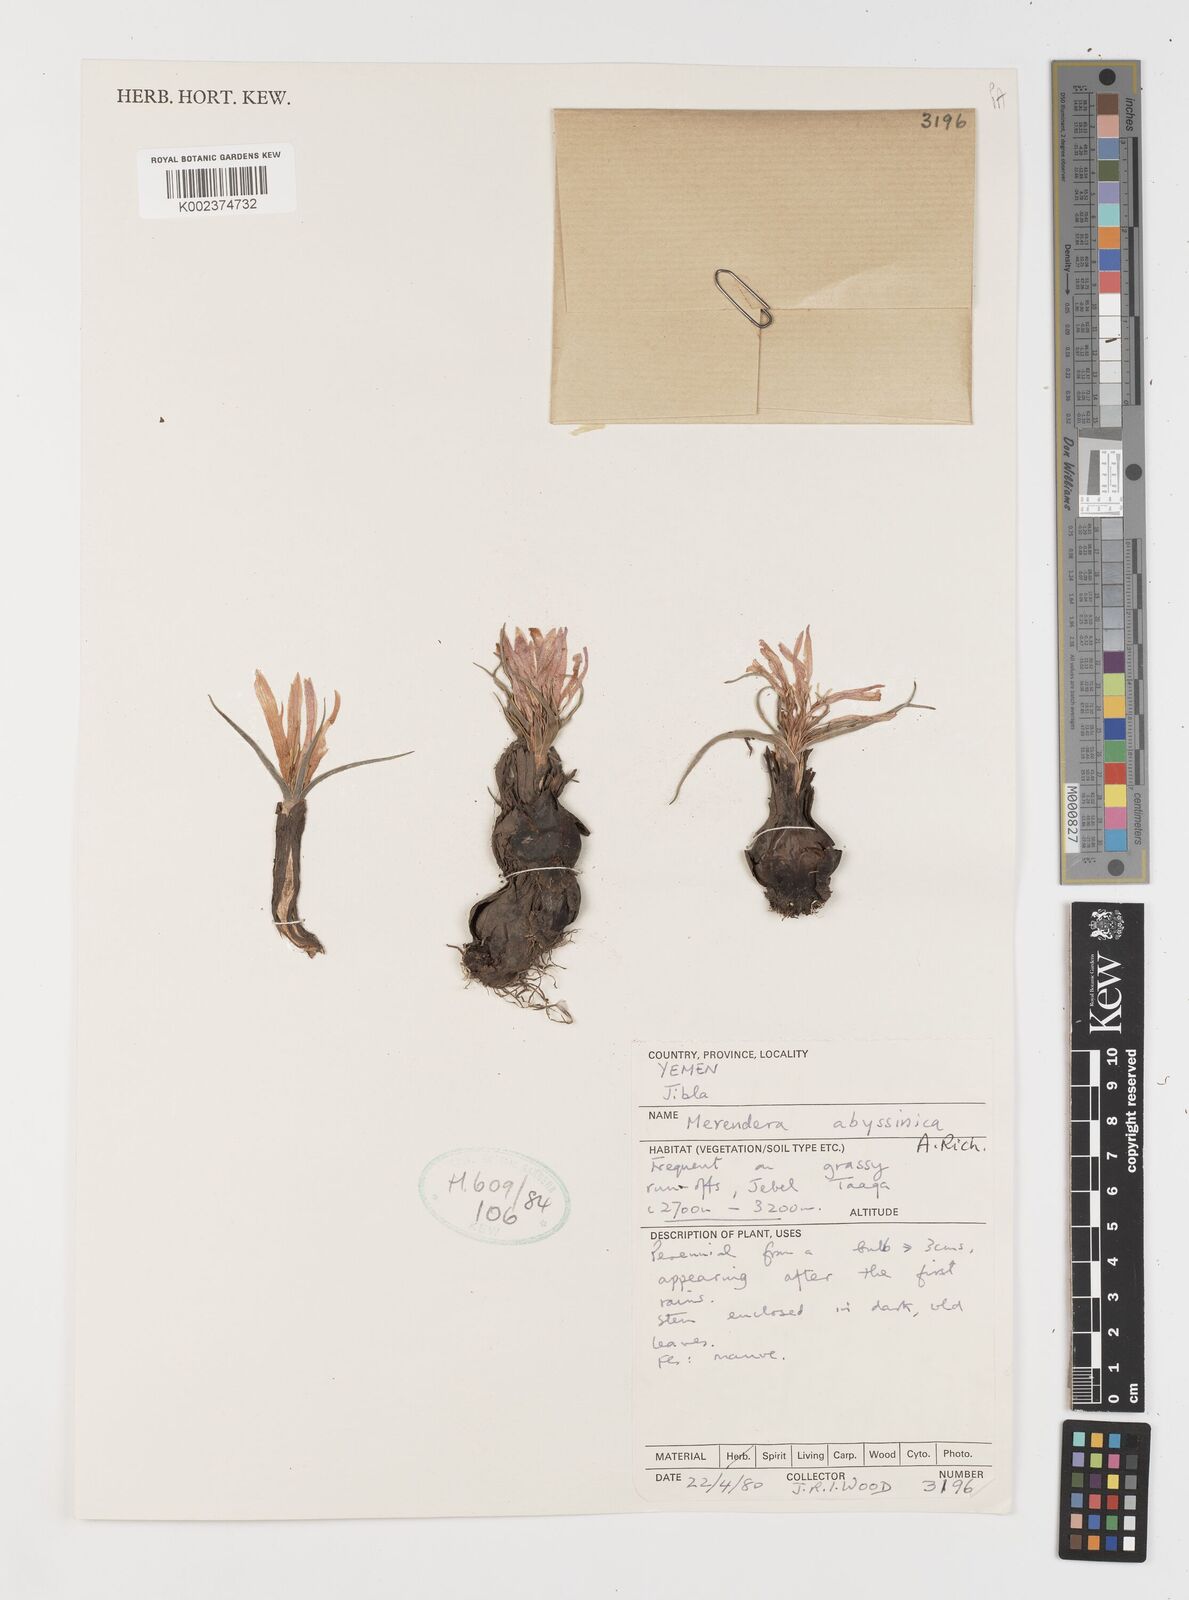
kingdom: Plantae
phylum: Tracheophyta
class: Liliopsida
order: Liliales
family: Colchicaceae
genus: Colchicum
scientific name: Colchicum
